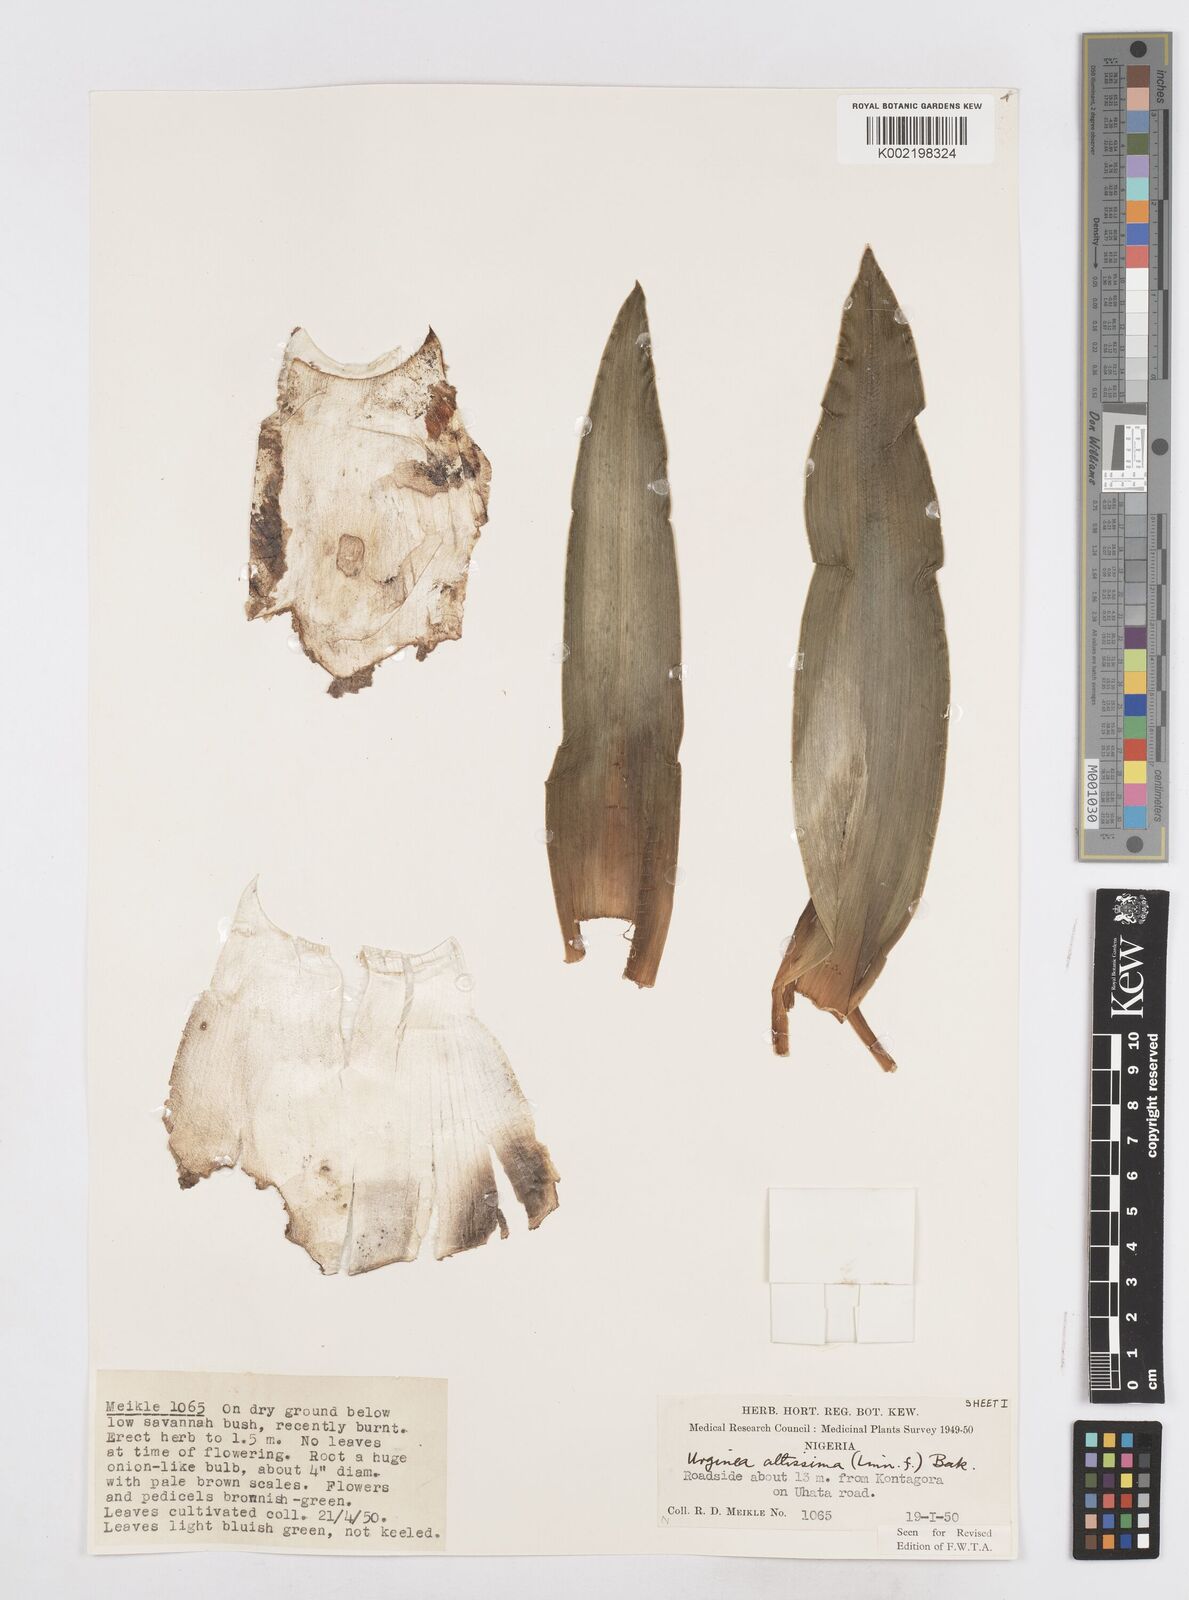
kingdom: Plantae
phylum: Tracheophyta
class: Liliopsida
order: Asparagales
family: Asparagaceae
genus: Drimia
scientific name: Drimia altissima
